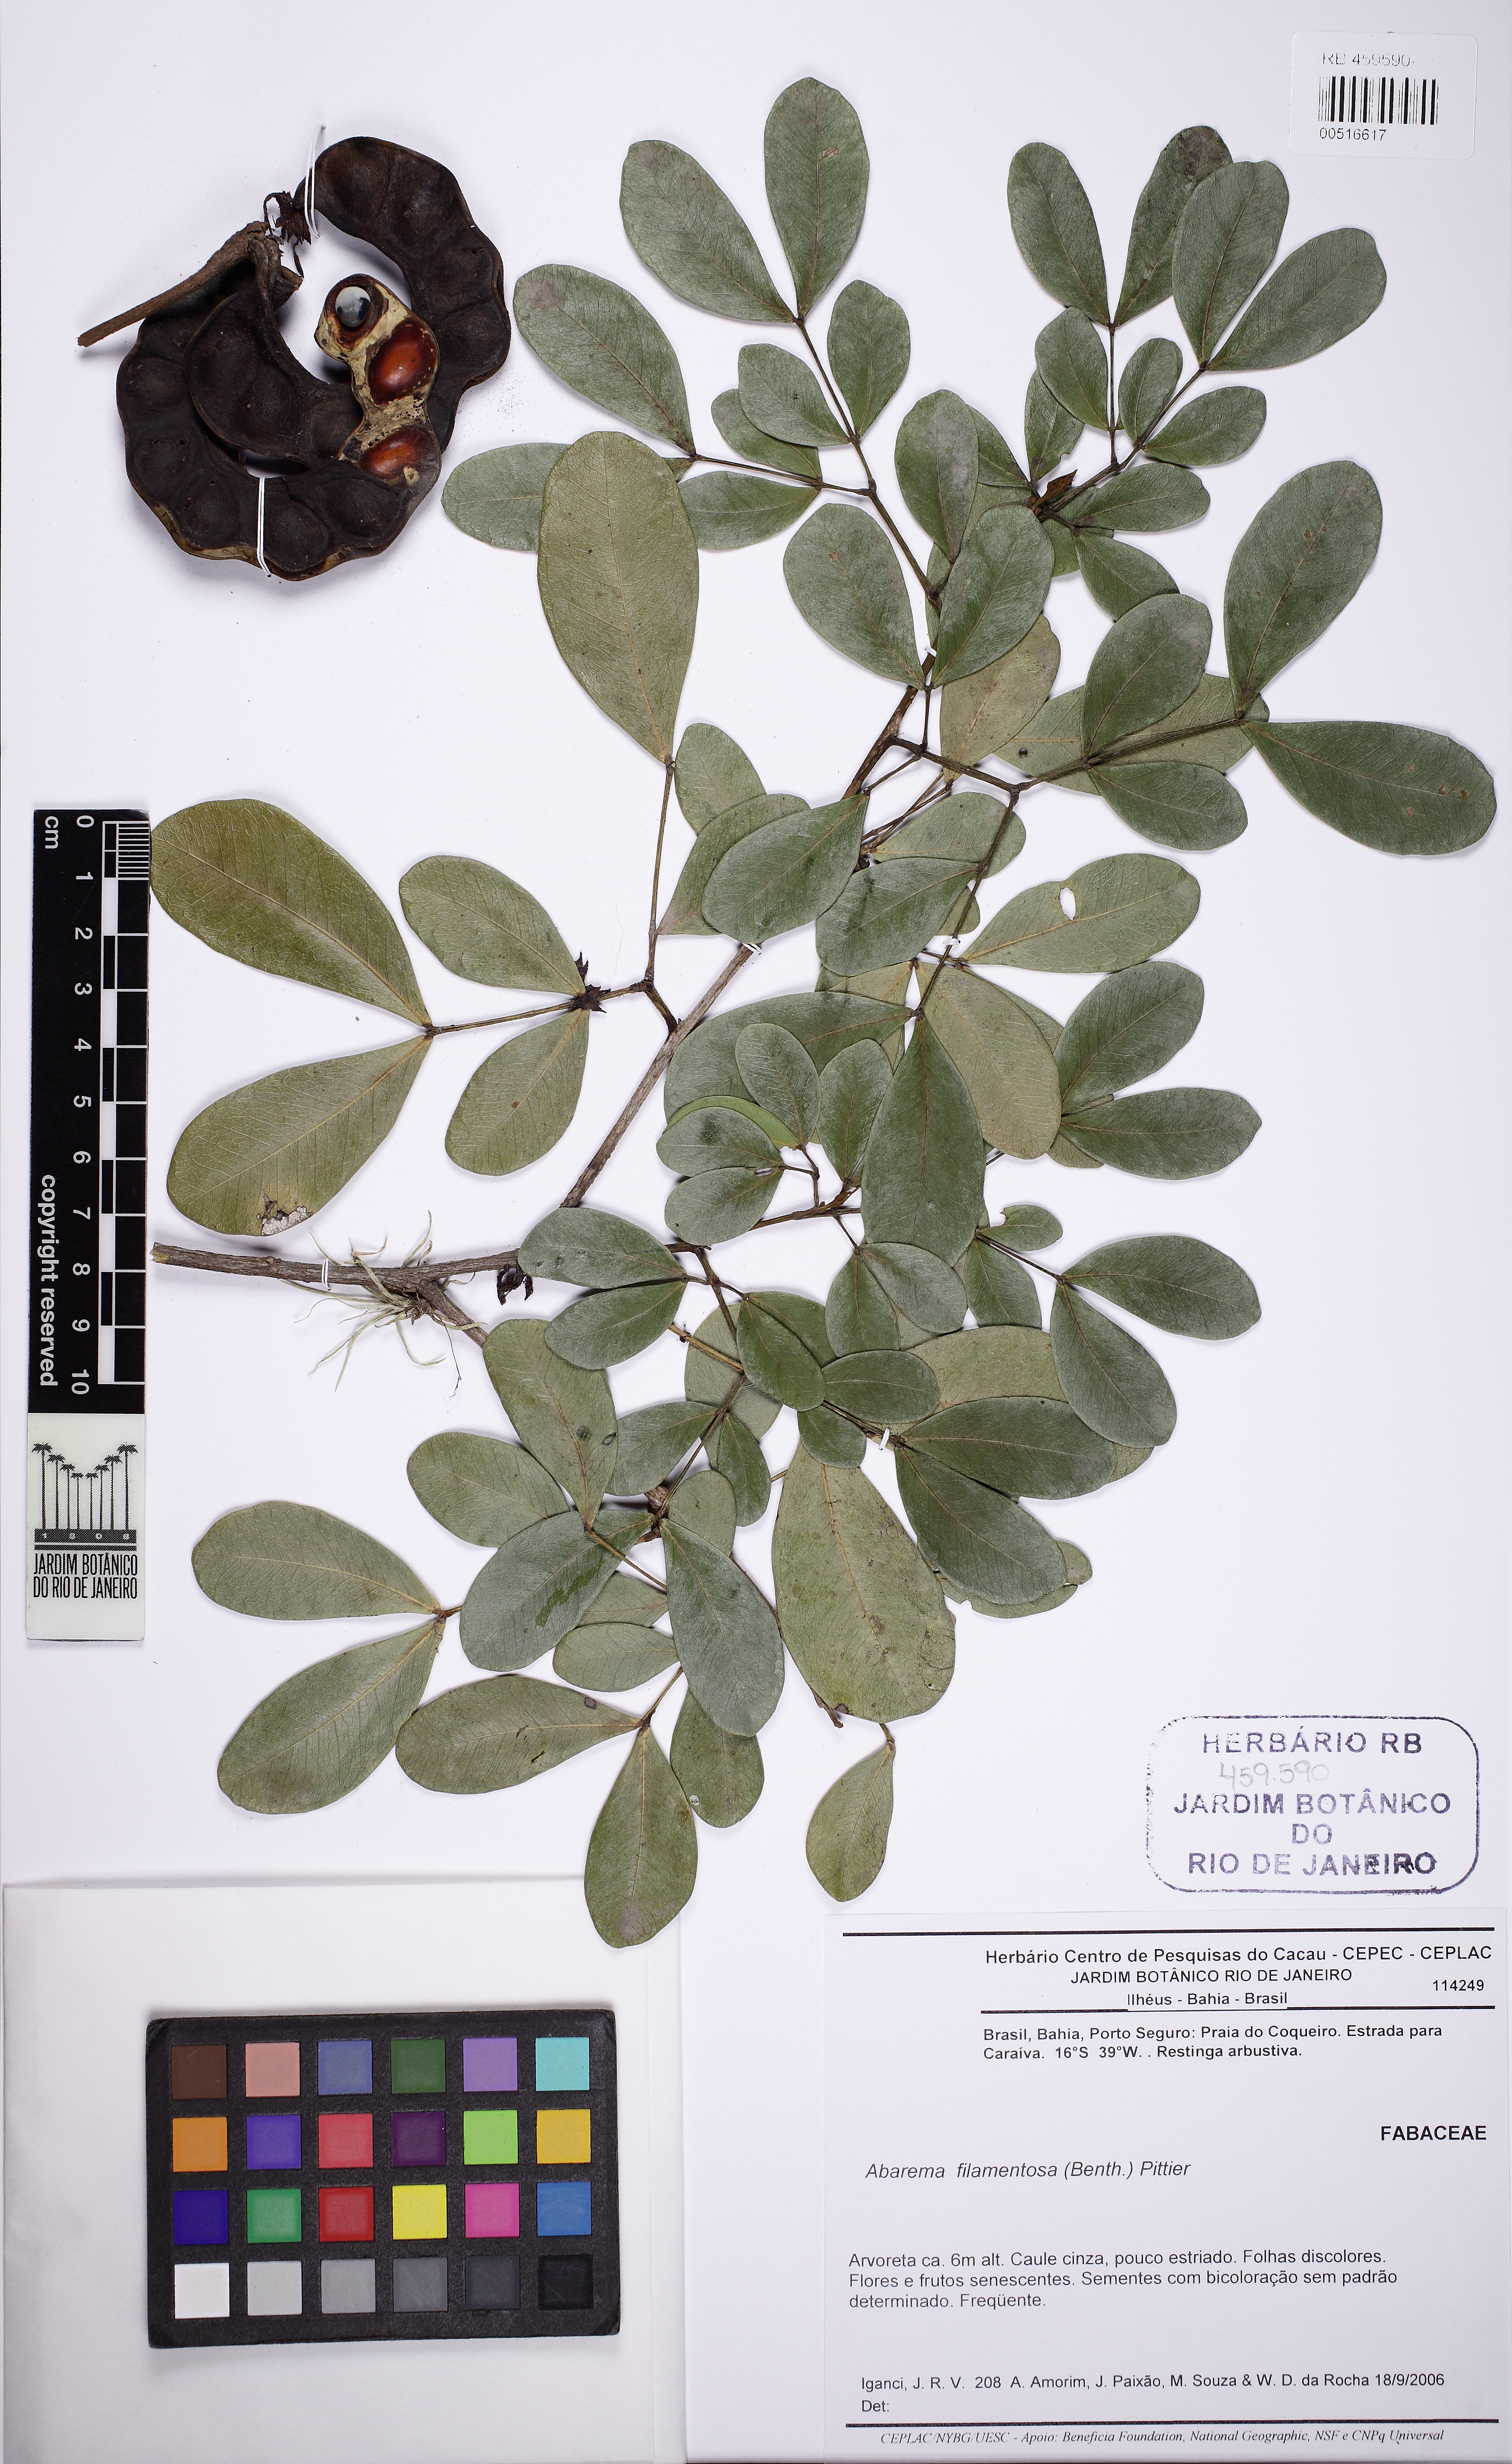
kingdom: Plantae
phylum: Tracheophyta
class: Magnoliopsida
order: Fabales
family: Fabaceae
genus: Jupunba
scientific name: Jupunba filamentosa
